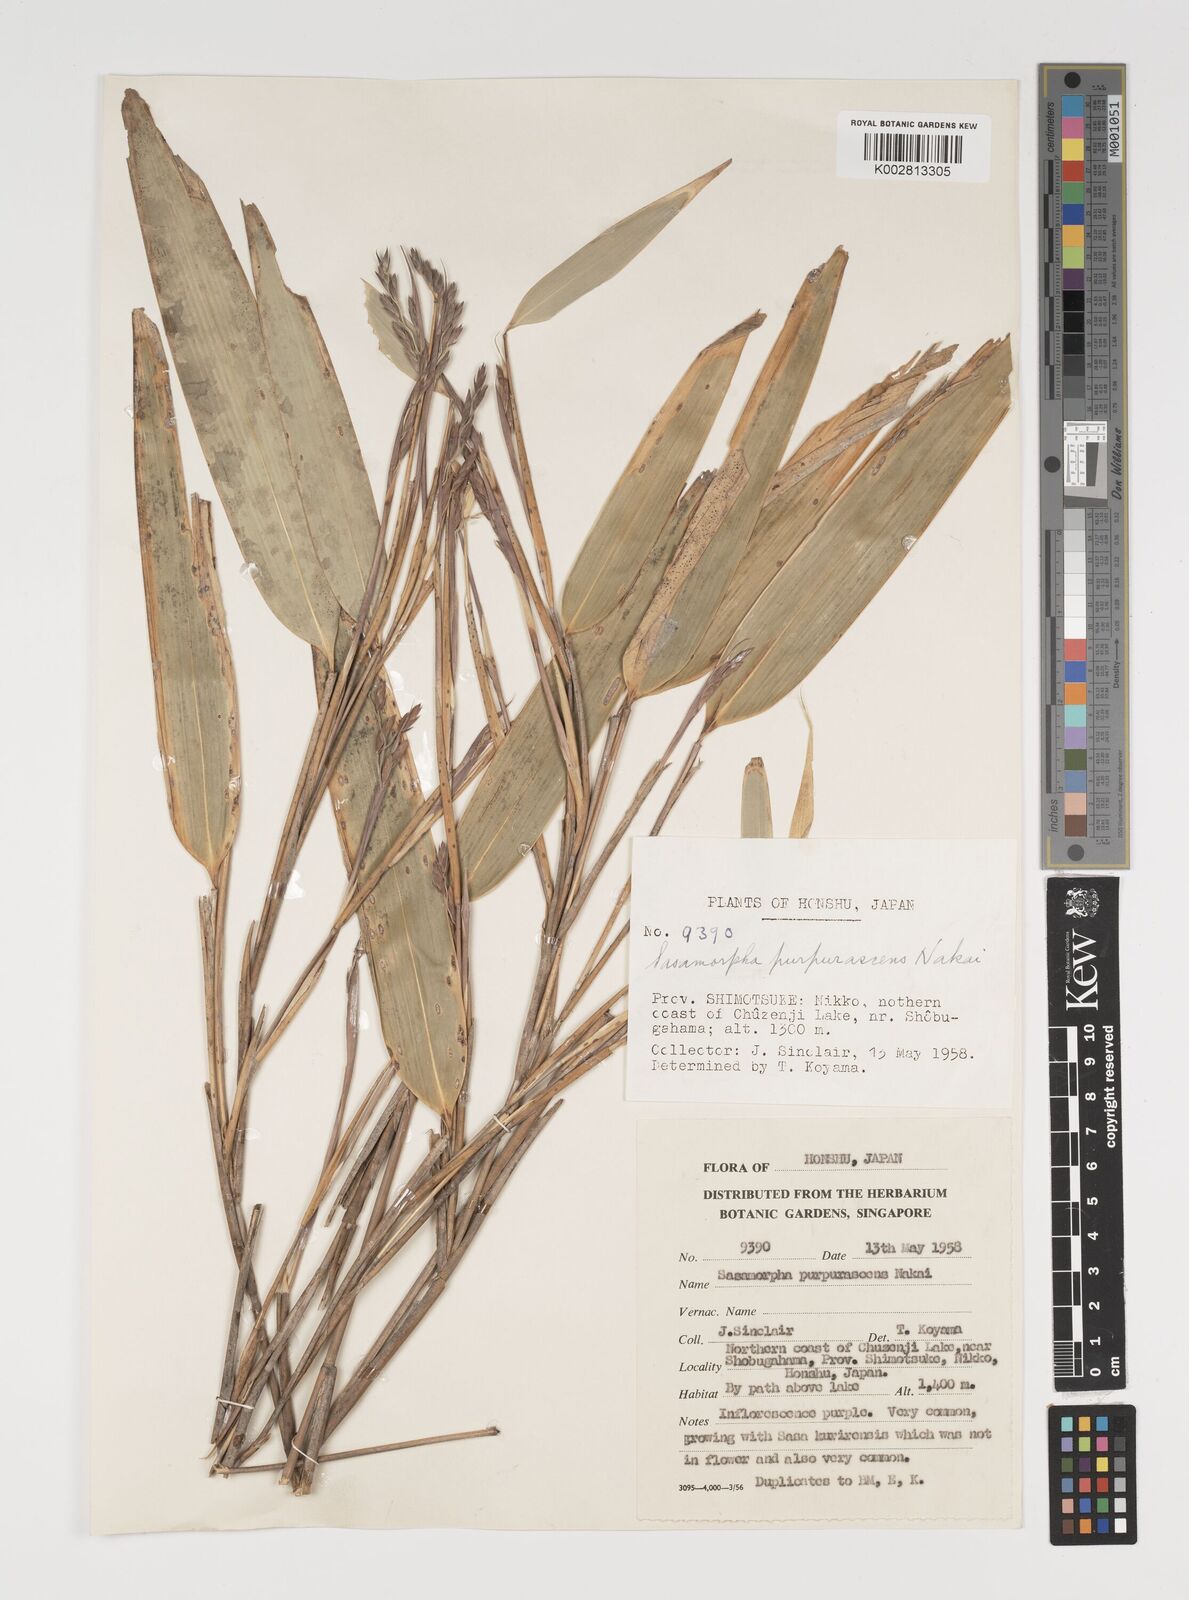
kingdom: Plantae
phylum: Tracheophyta
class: Liliopsida
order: Poales
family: Poaceae
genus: Sasamorpha
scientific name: Sasamorpha borealis
